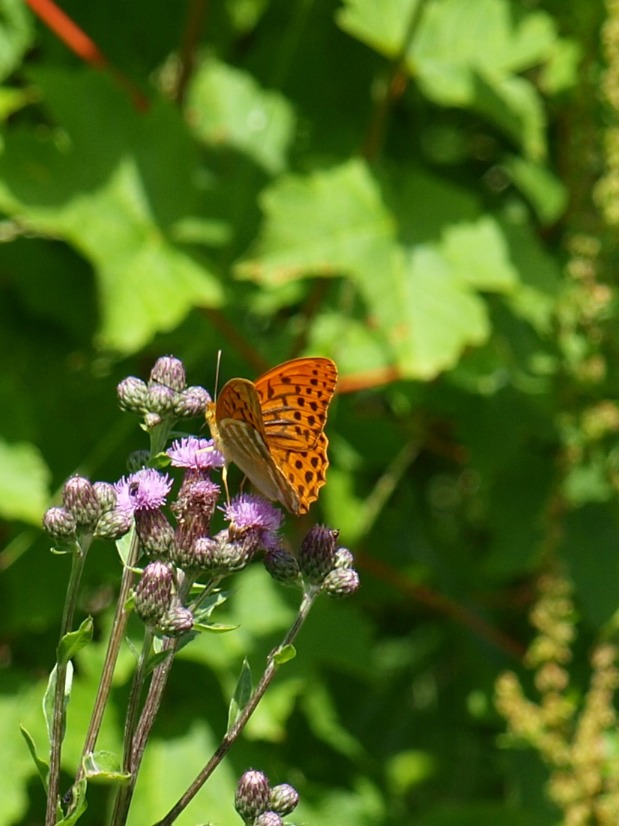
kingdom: Animalia
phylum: Arthropoda
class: Insecta
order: Lepidoptera
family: Nymphalidae
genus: Argynnis
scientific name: Argynnis paphia
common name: Kejserkåbe
